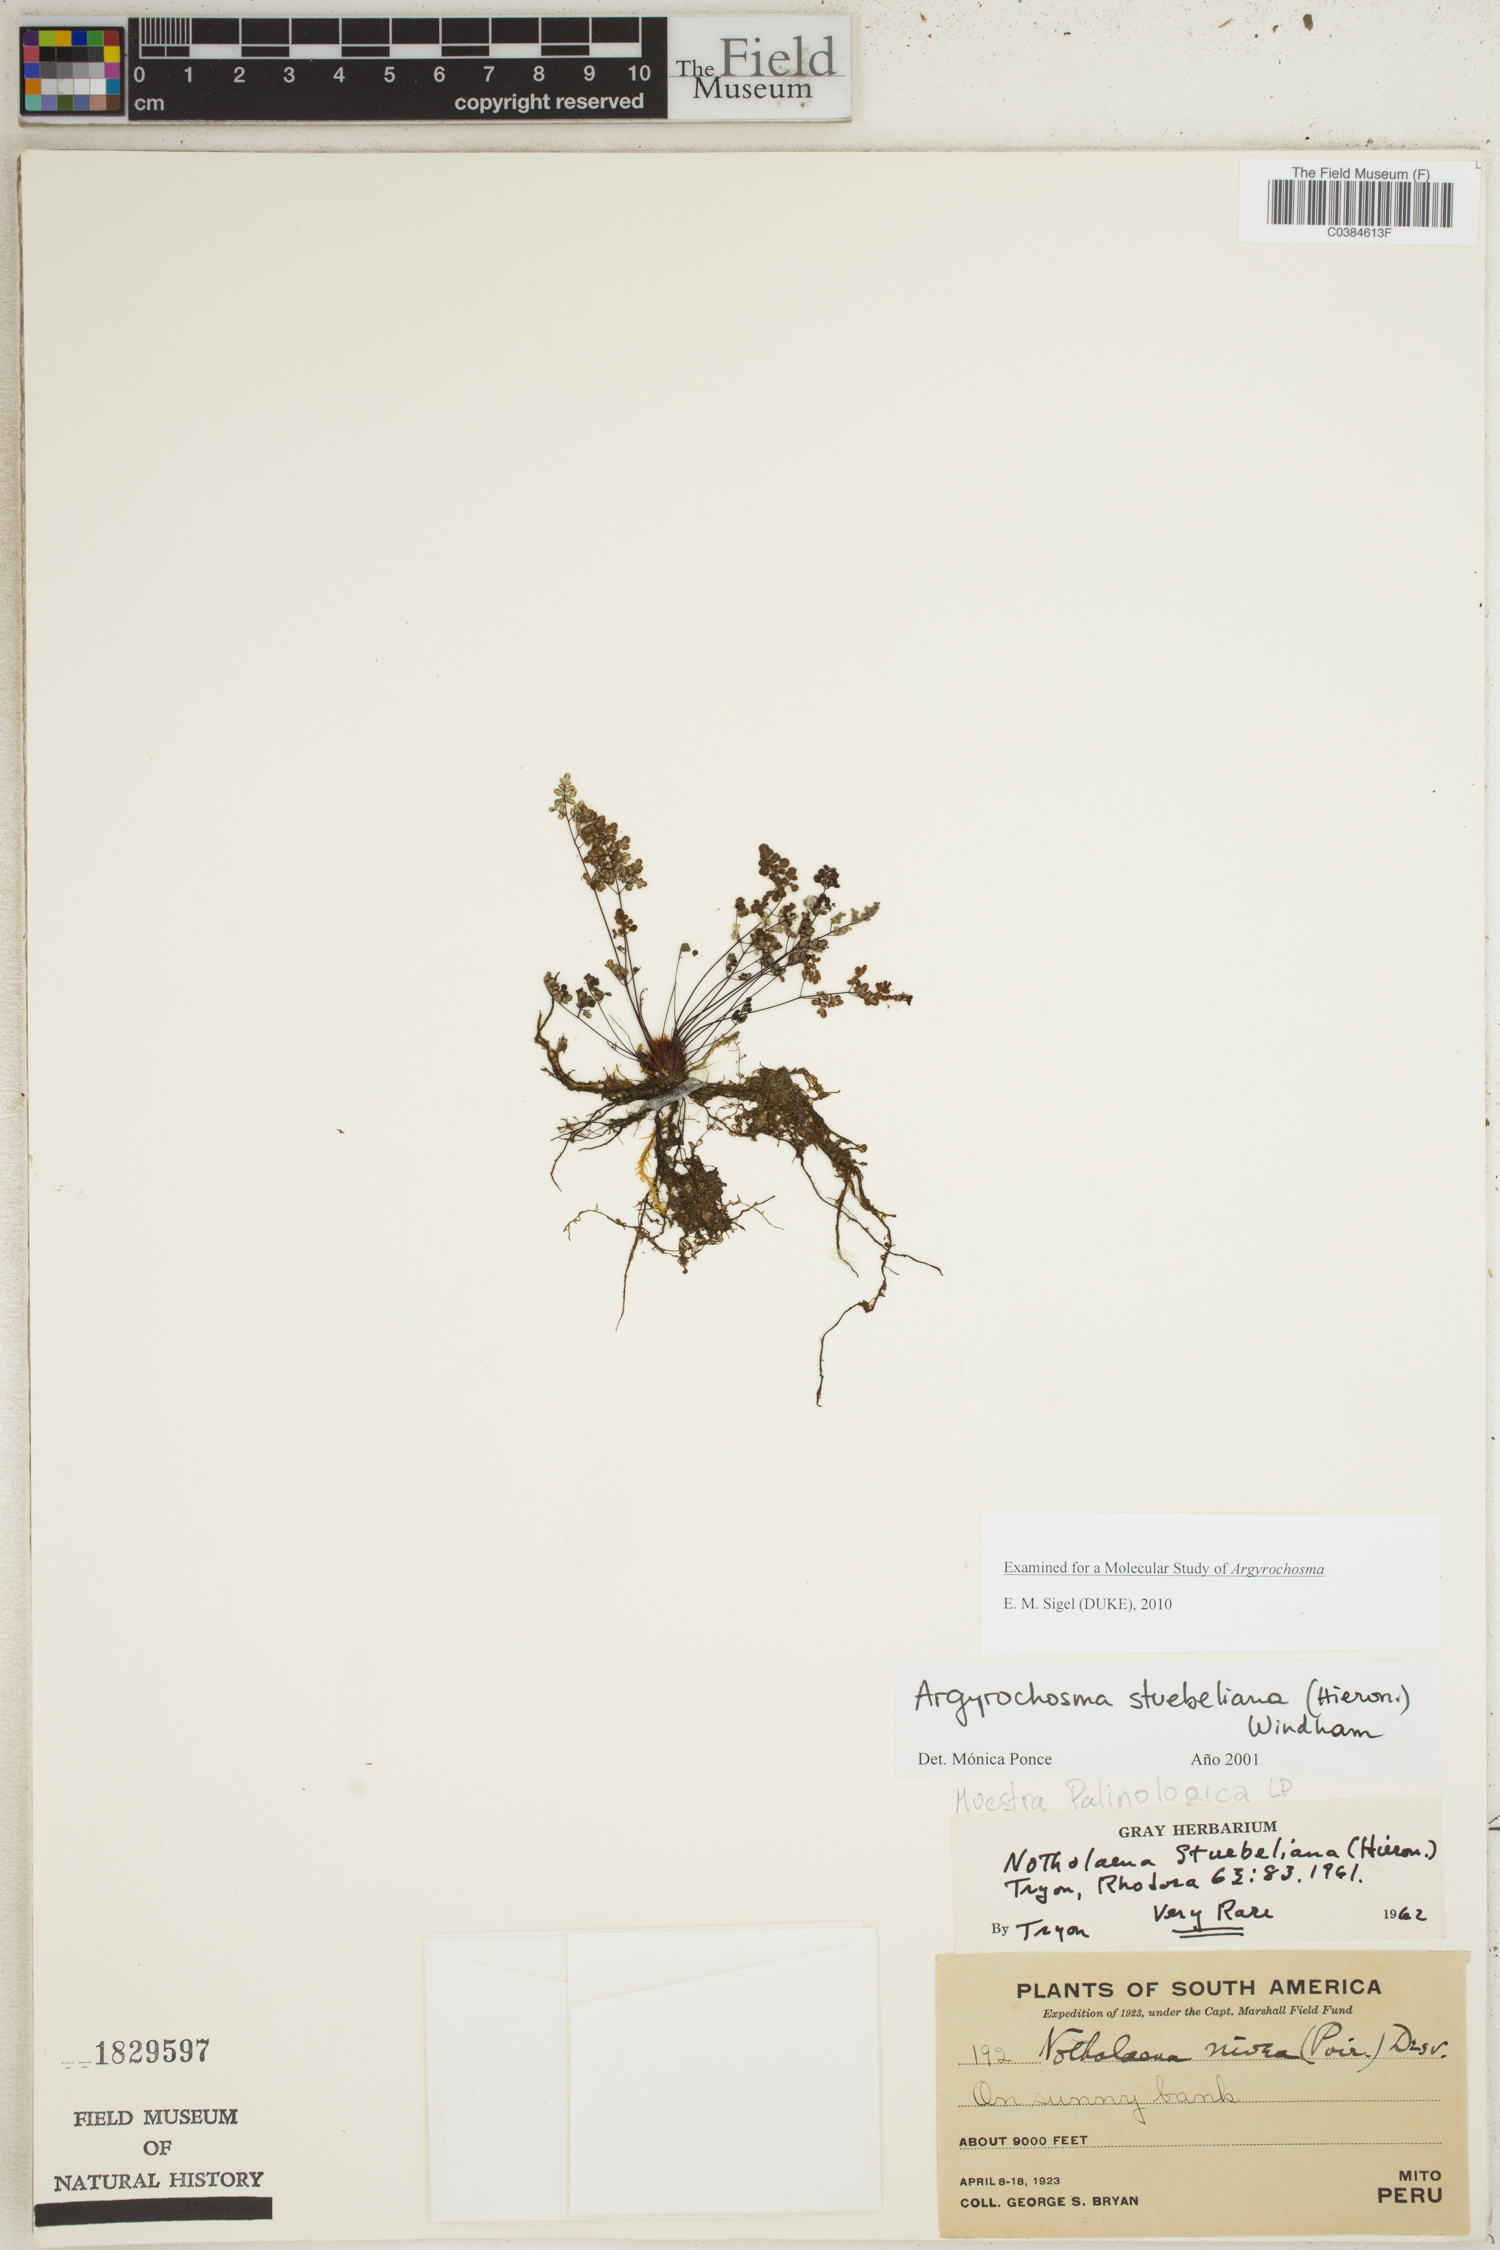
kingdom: Plantae
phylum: Tracheophyta
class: Polypodiopsida
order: Polypodiales
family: Pteridaceae
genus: Argyrochosma
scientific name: Argyrochosma stuebeliana
